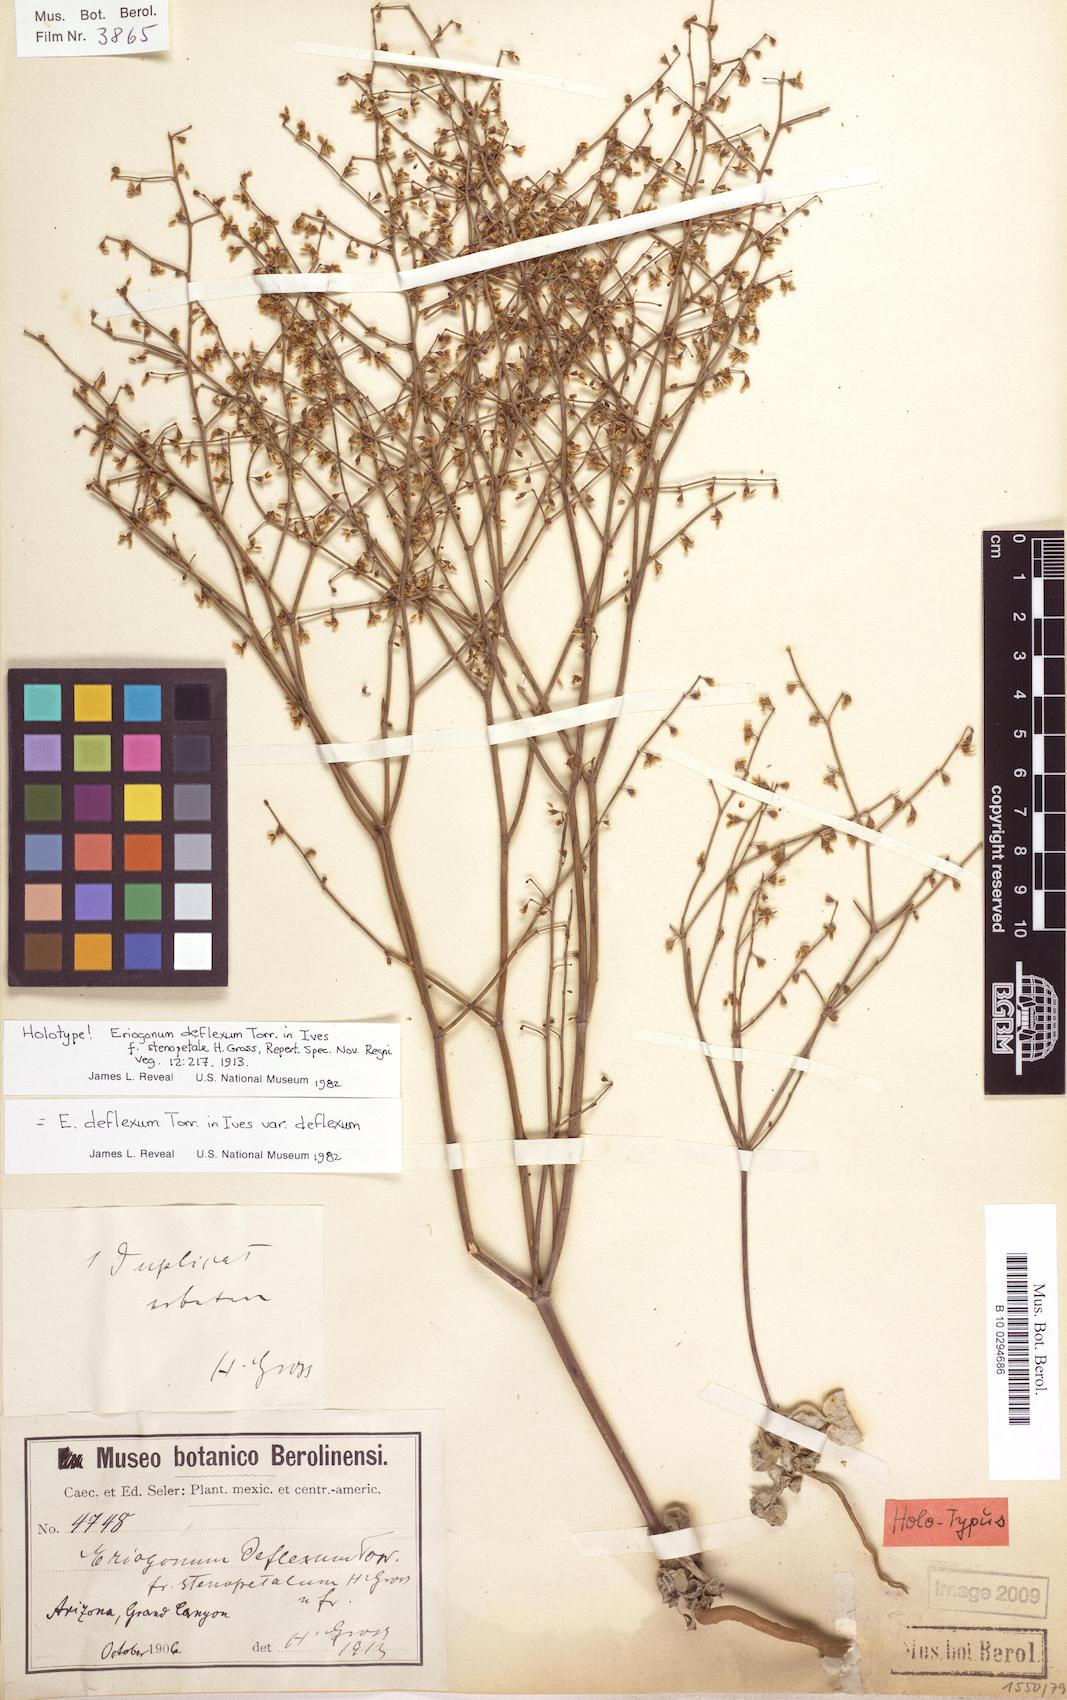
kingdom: Plantae
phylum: Tracheophyta
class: Magnoliopsida
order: Caryophyllales
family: Polygonaceae
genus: Eriogonum
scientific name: Eriogonum deflexum
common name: Skeleton-weed
